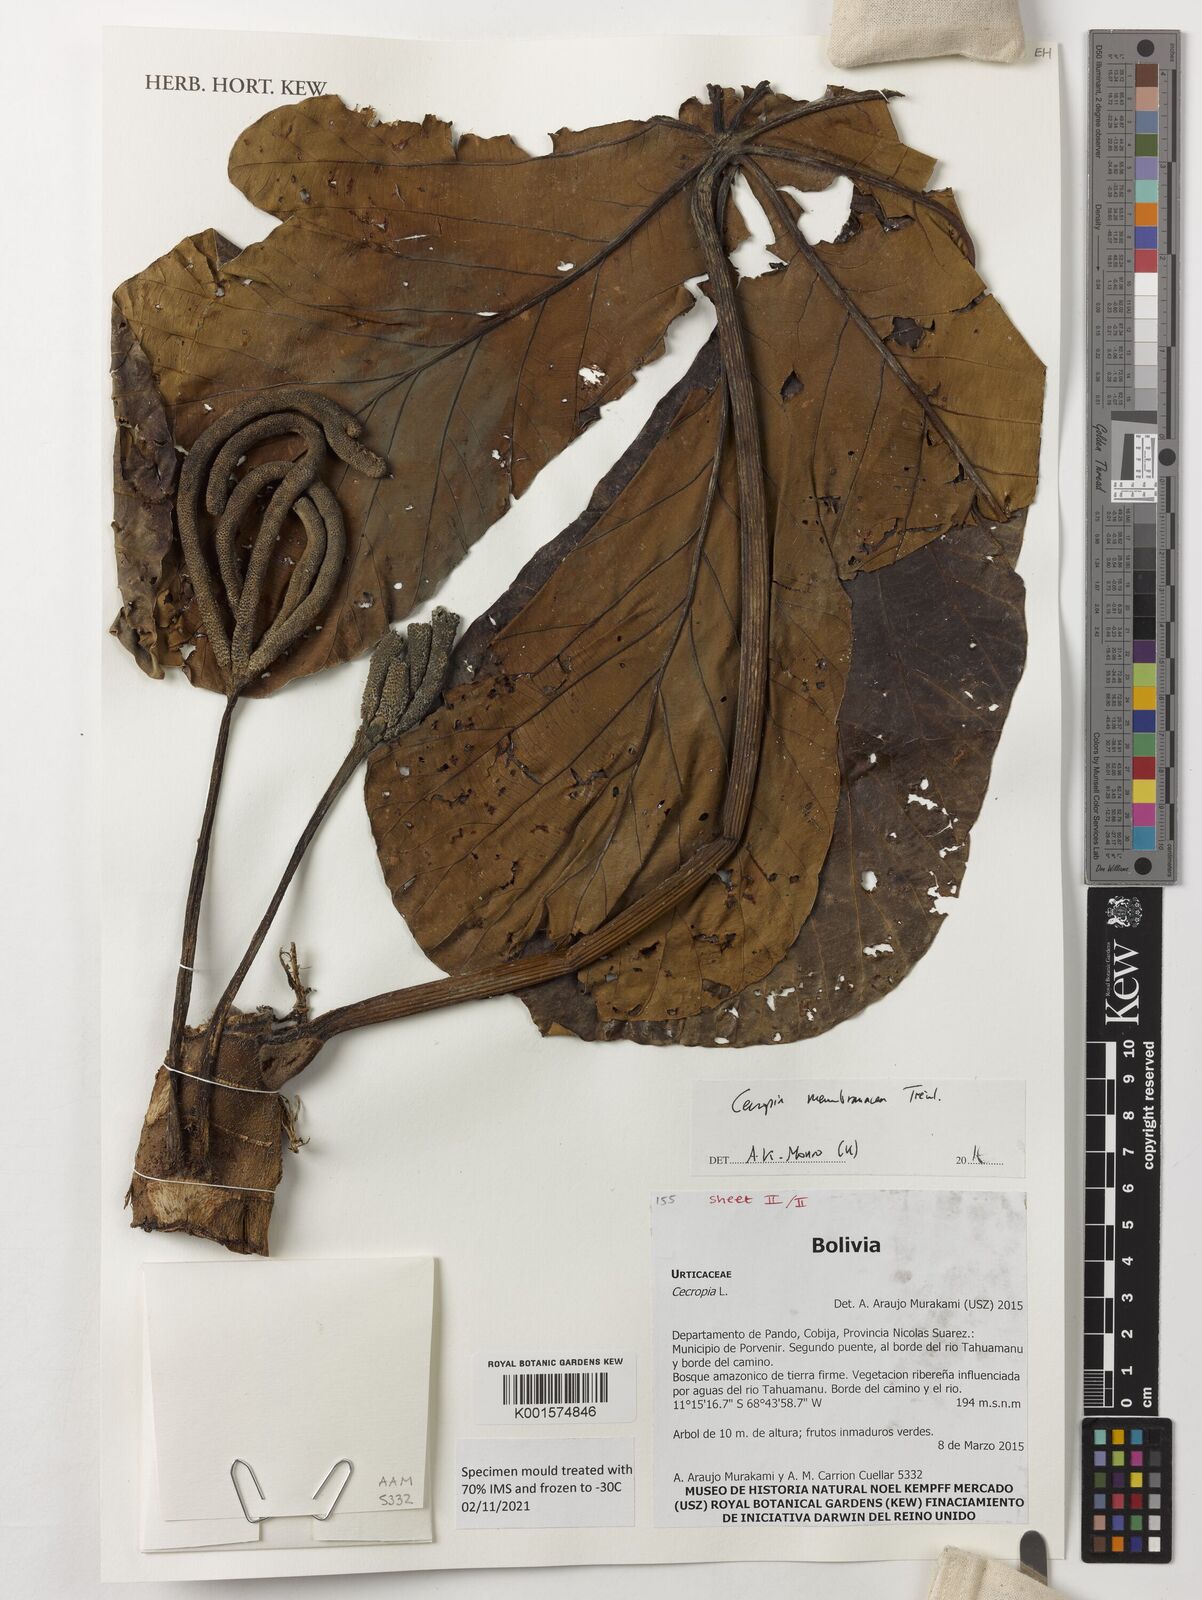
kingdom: Plantae
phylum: Tracheophyta
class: Magnoliopsida
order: Rosales
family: Urticaceae
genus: Cecropia
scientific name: Cecropia membranacea
